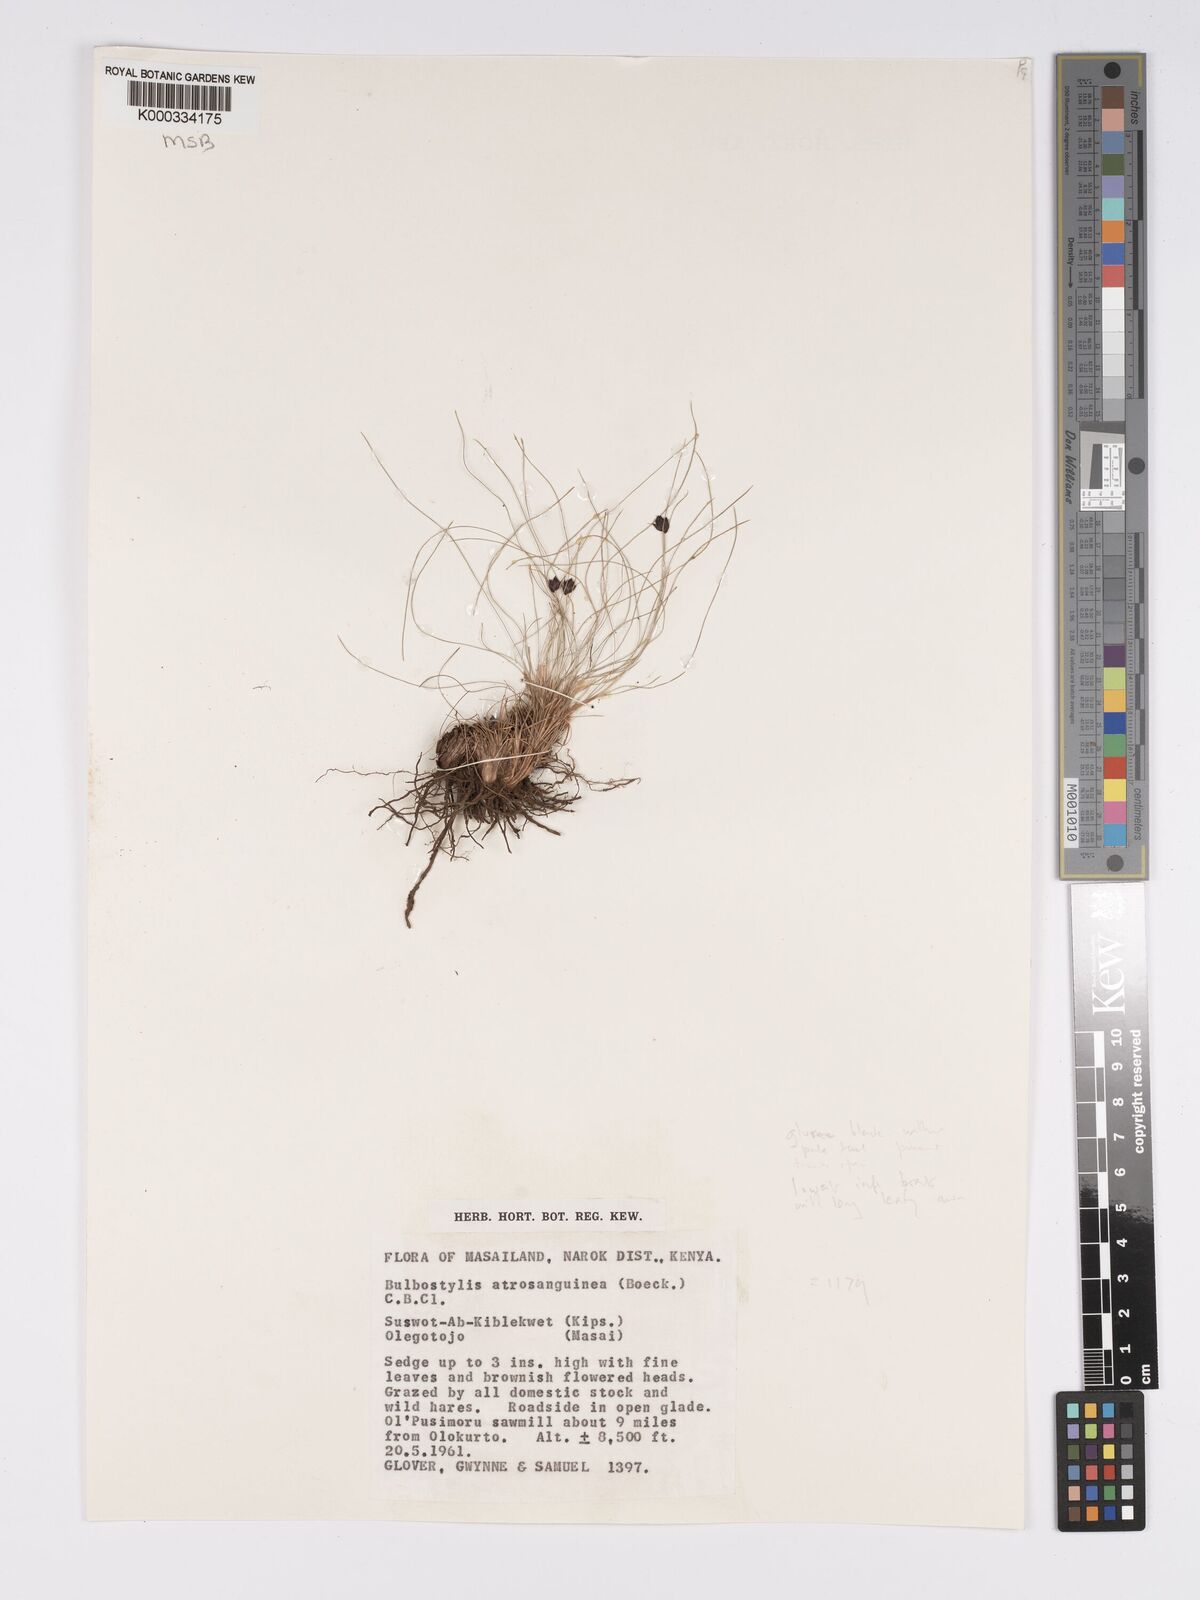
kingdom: Plantae
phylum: Tracheophyta
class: Liliopsida
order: Poales
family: Cyperaceae
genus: Bulbostylis
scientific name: Bulbostylis atrosanguinea
